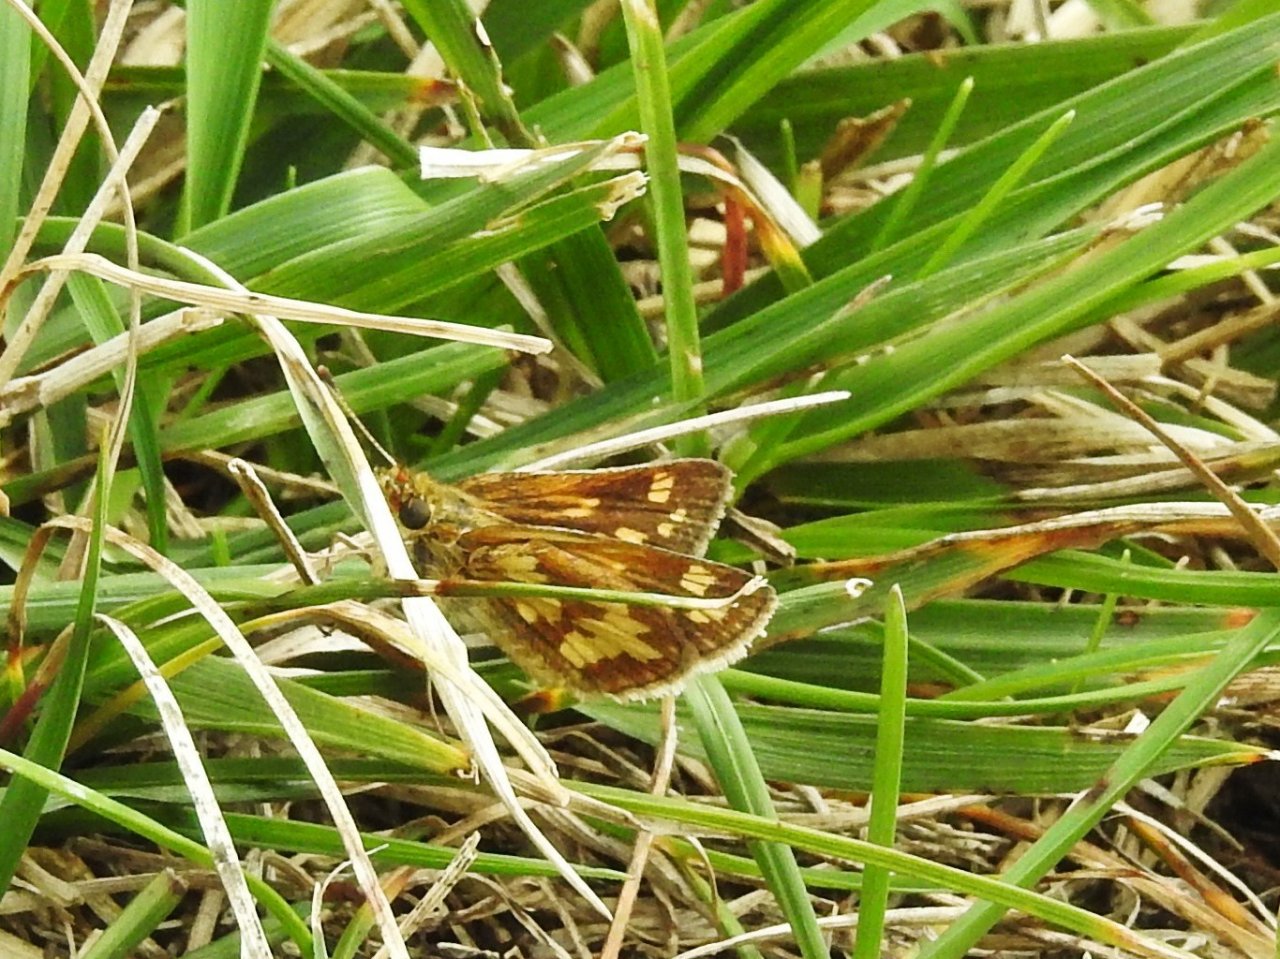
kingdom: Animalia
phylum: Arthropoda
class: Insecta
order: Lepidoptera
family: Hesperiidae
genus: Polites
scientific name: Polites coras
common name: Peck's Skipper
